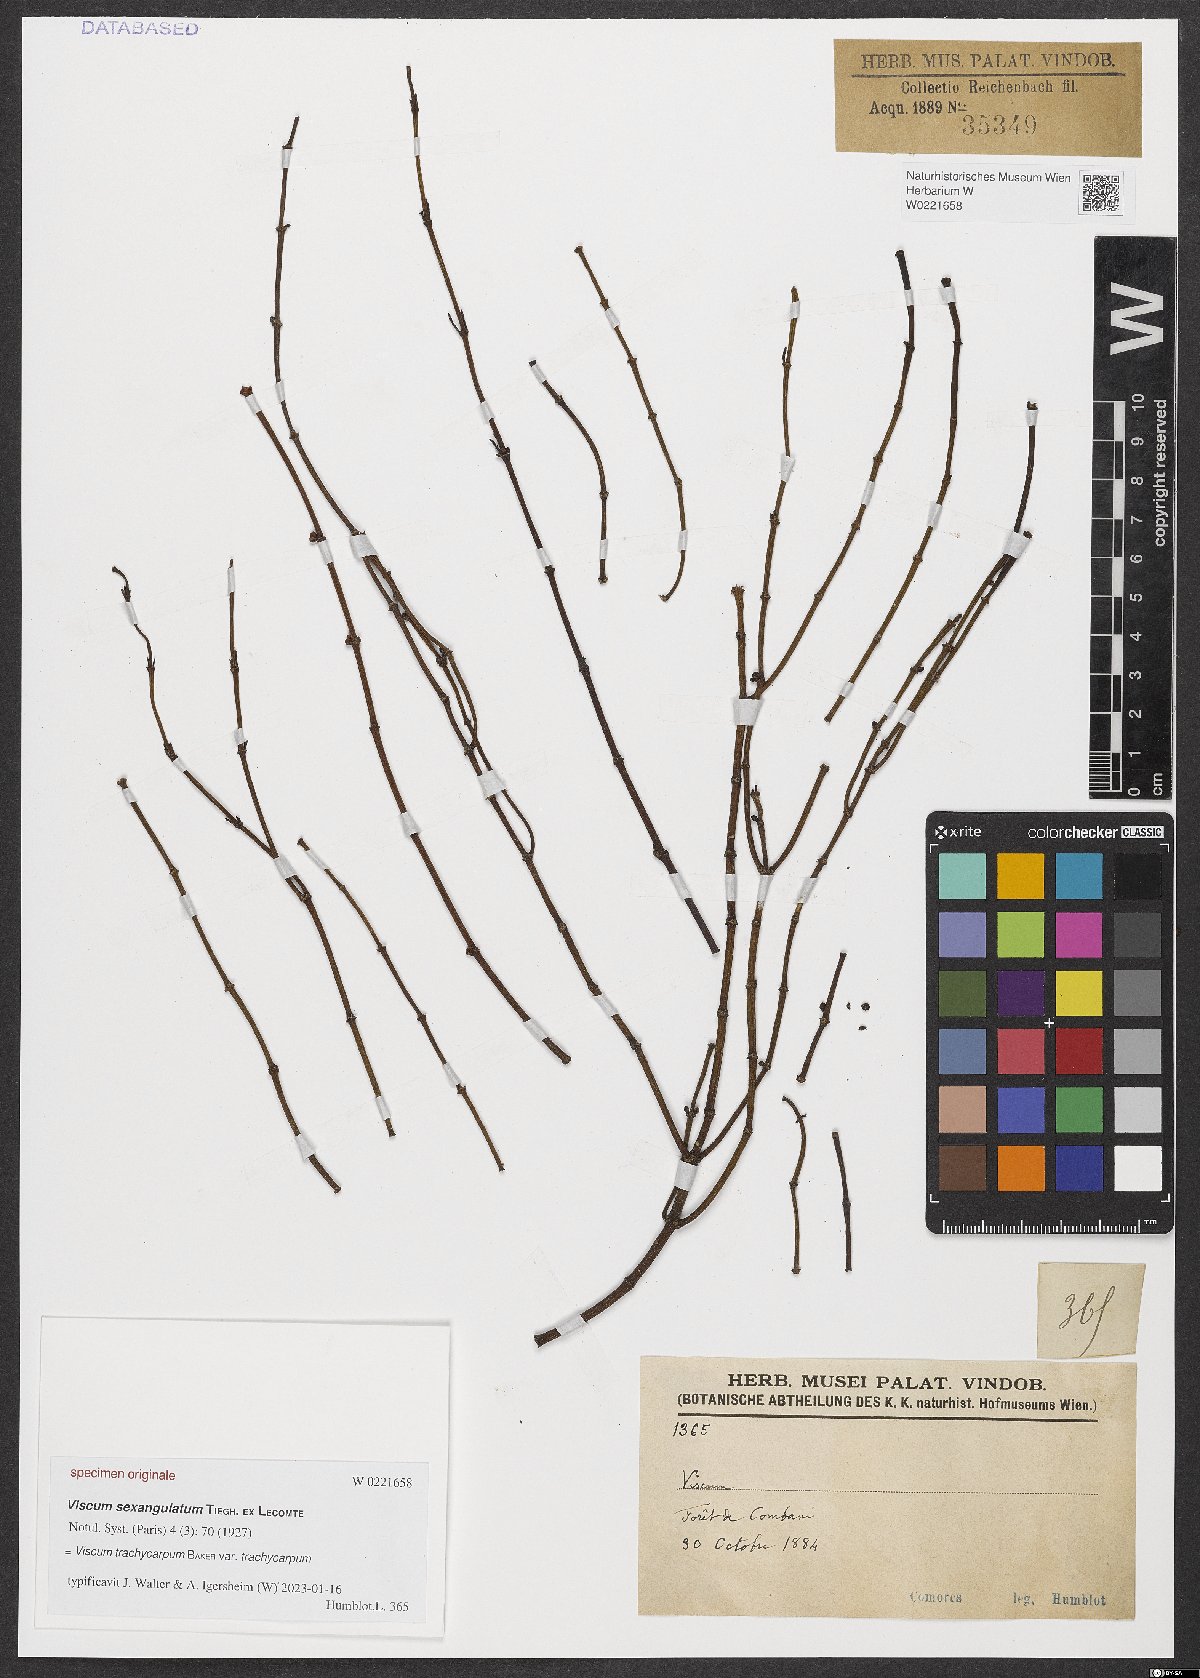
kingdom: Plantae
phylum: Tracheophyta
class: Magnoliopsida
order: Santalales
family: Viscaceae
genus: Viscum
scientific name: Viscum trachycarpum
